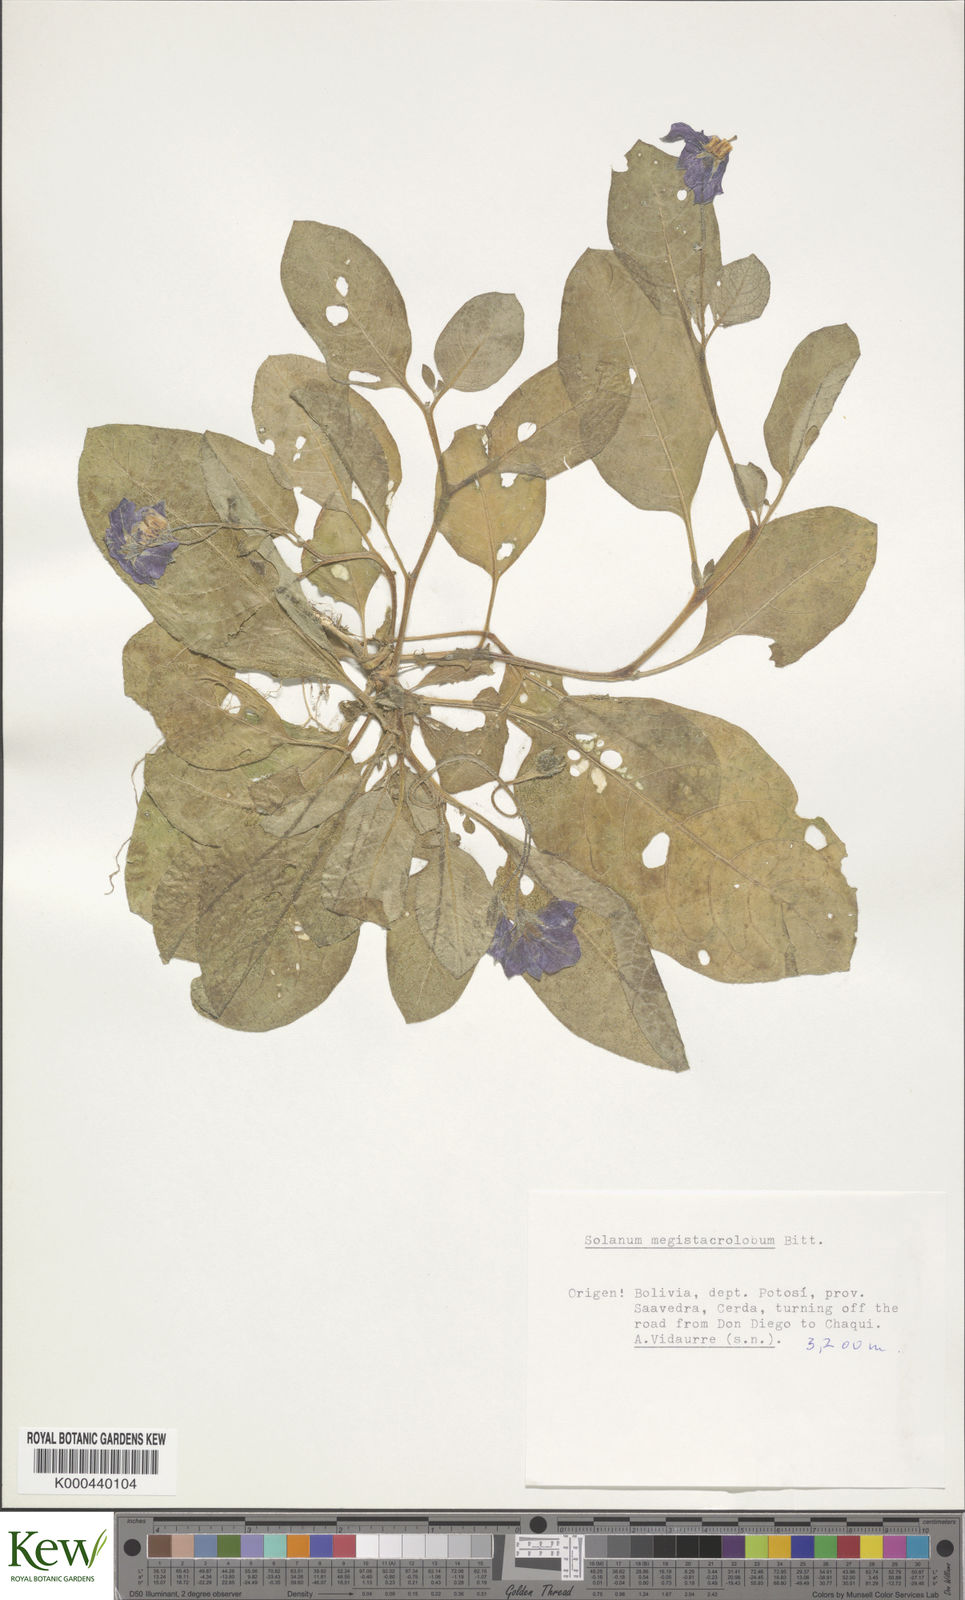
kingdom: Plantae
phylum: Tracheophyta
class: Magnoliopsida
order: Solanales
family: Solanaceae
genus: Solanum
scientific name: Solanum boliviense
